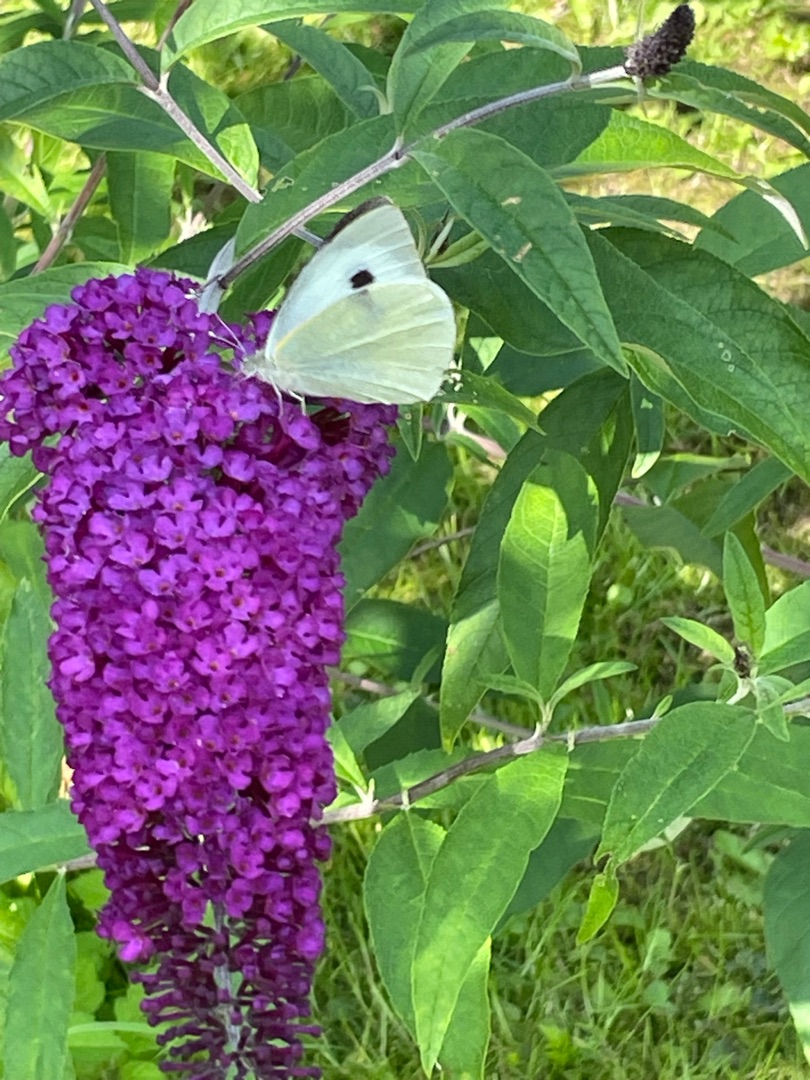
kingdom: Animalia
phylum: Arthropoda
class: Insecta
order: Lepidoptera
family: Pieridae
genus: Pieris
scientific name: Pieris brassicae
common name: Stor kålsommerfugl
